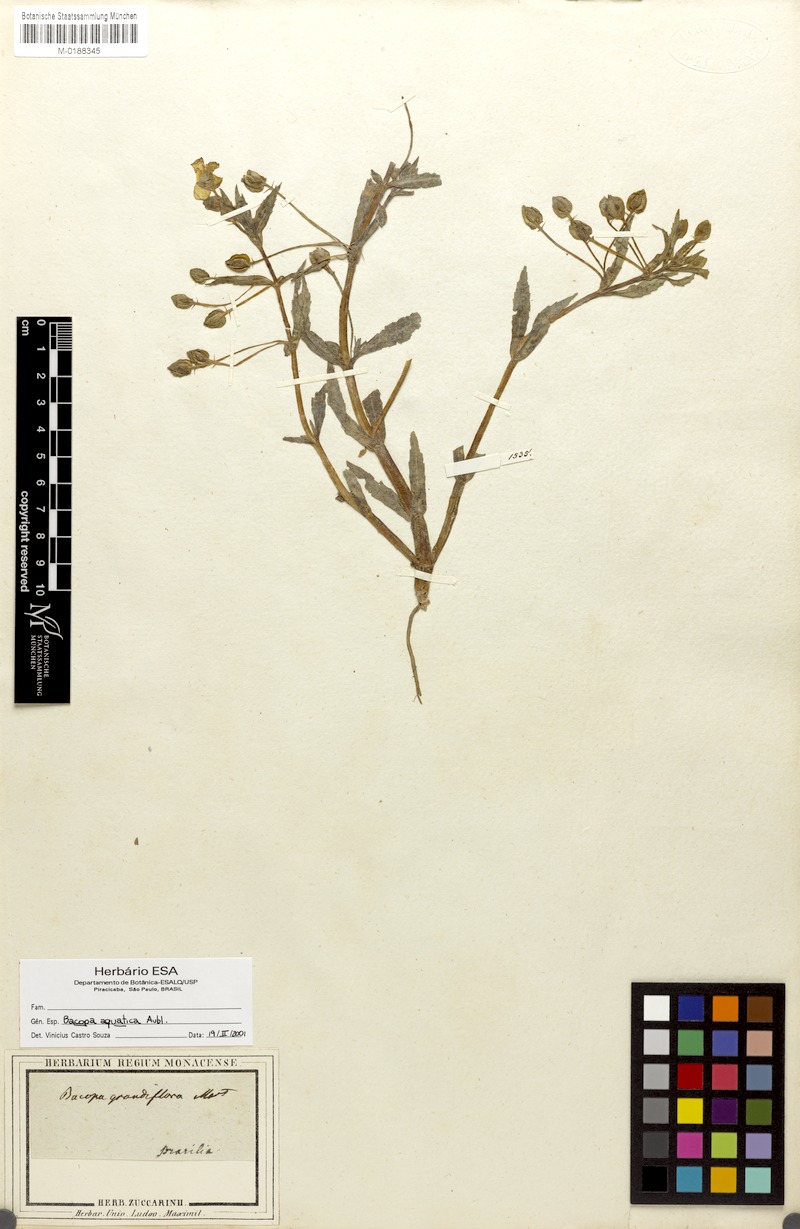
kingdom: Plantae
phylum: Tracheophyta
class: Magnoliopsida
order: Lamiales
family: Plantaginaceae
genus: Bacopa
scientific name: Bacopa aquatica
